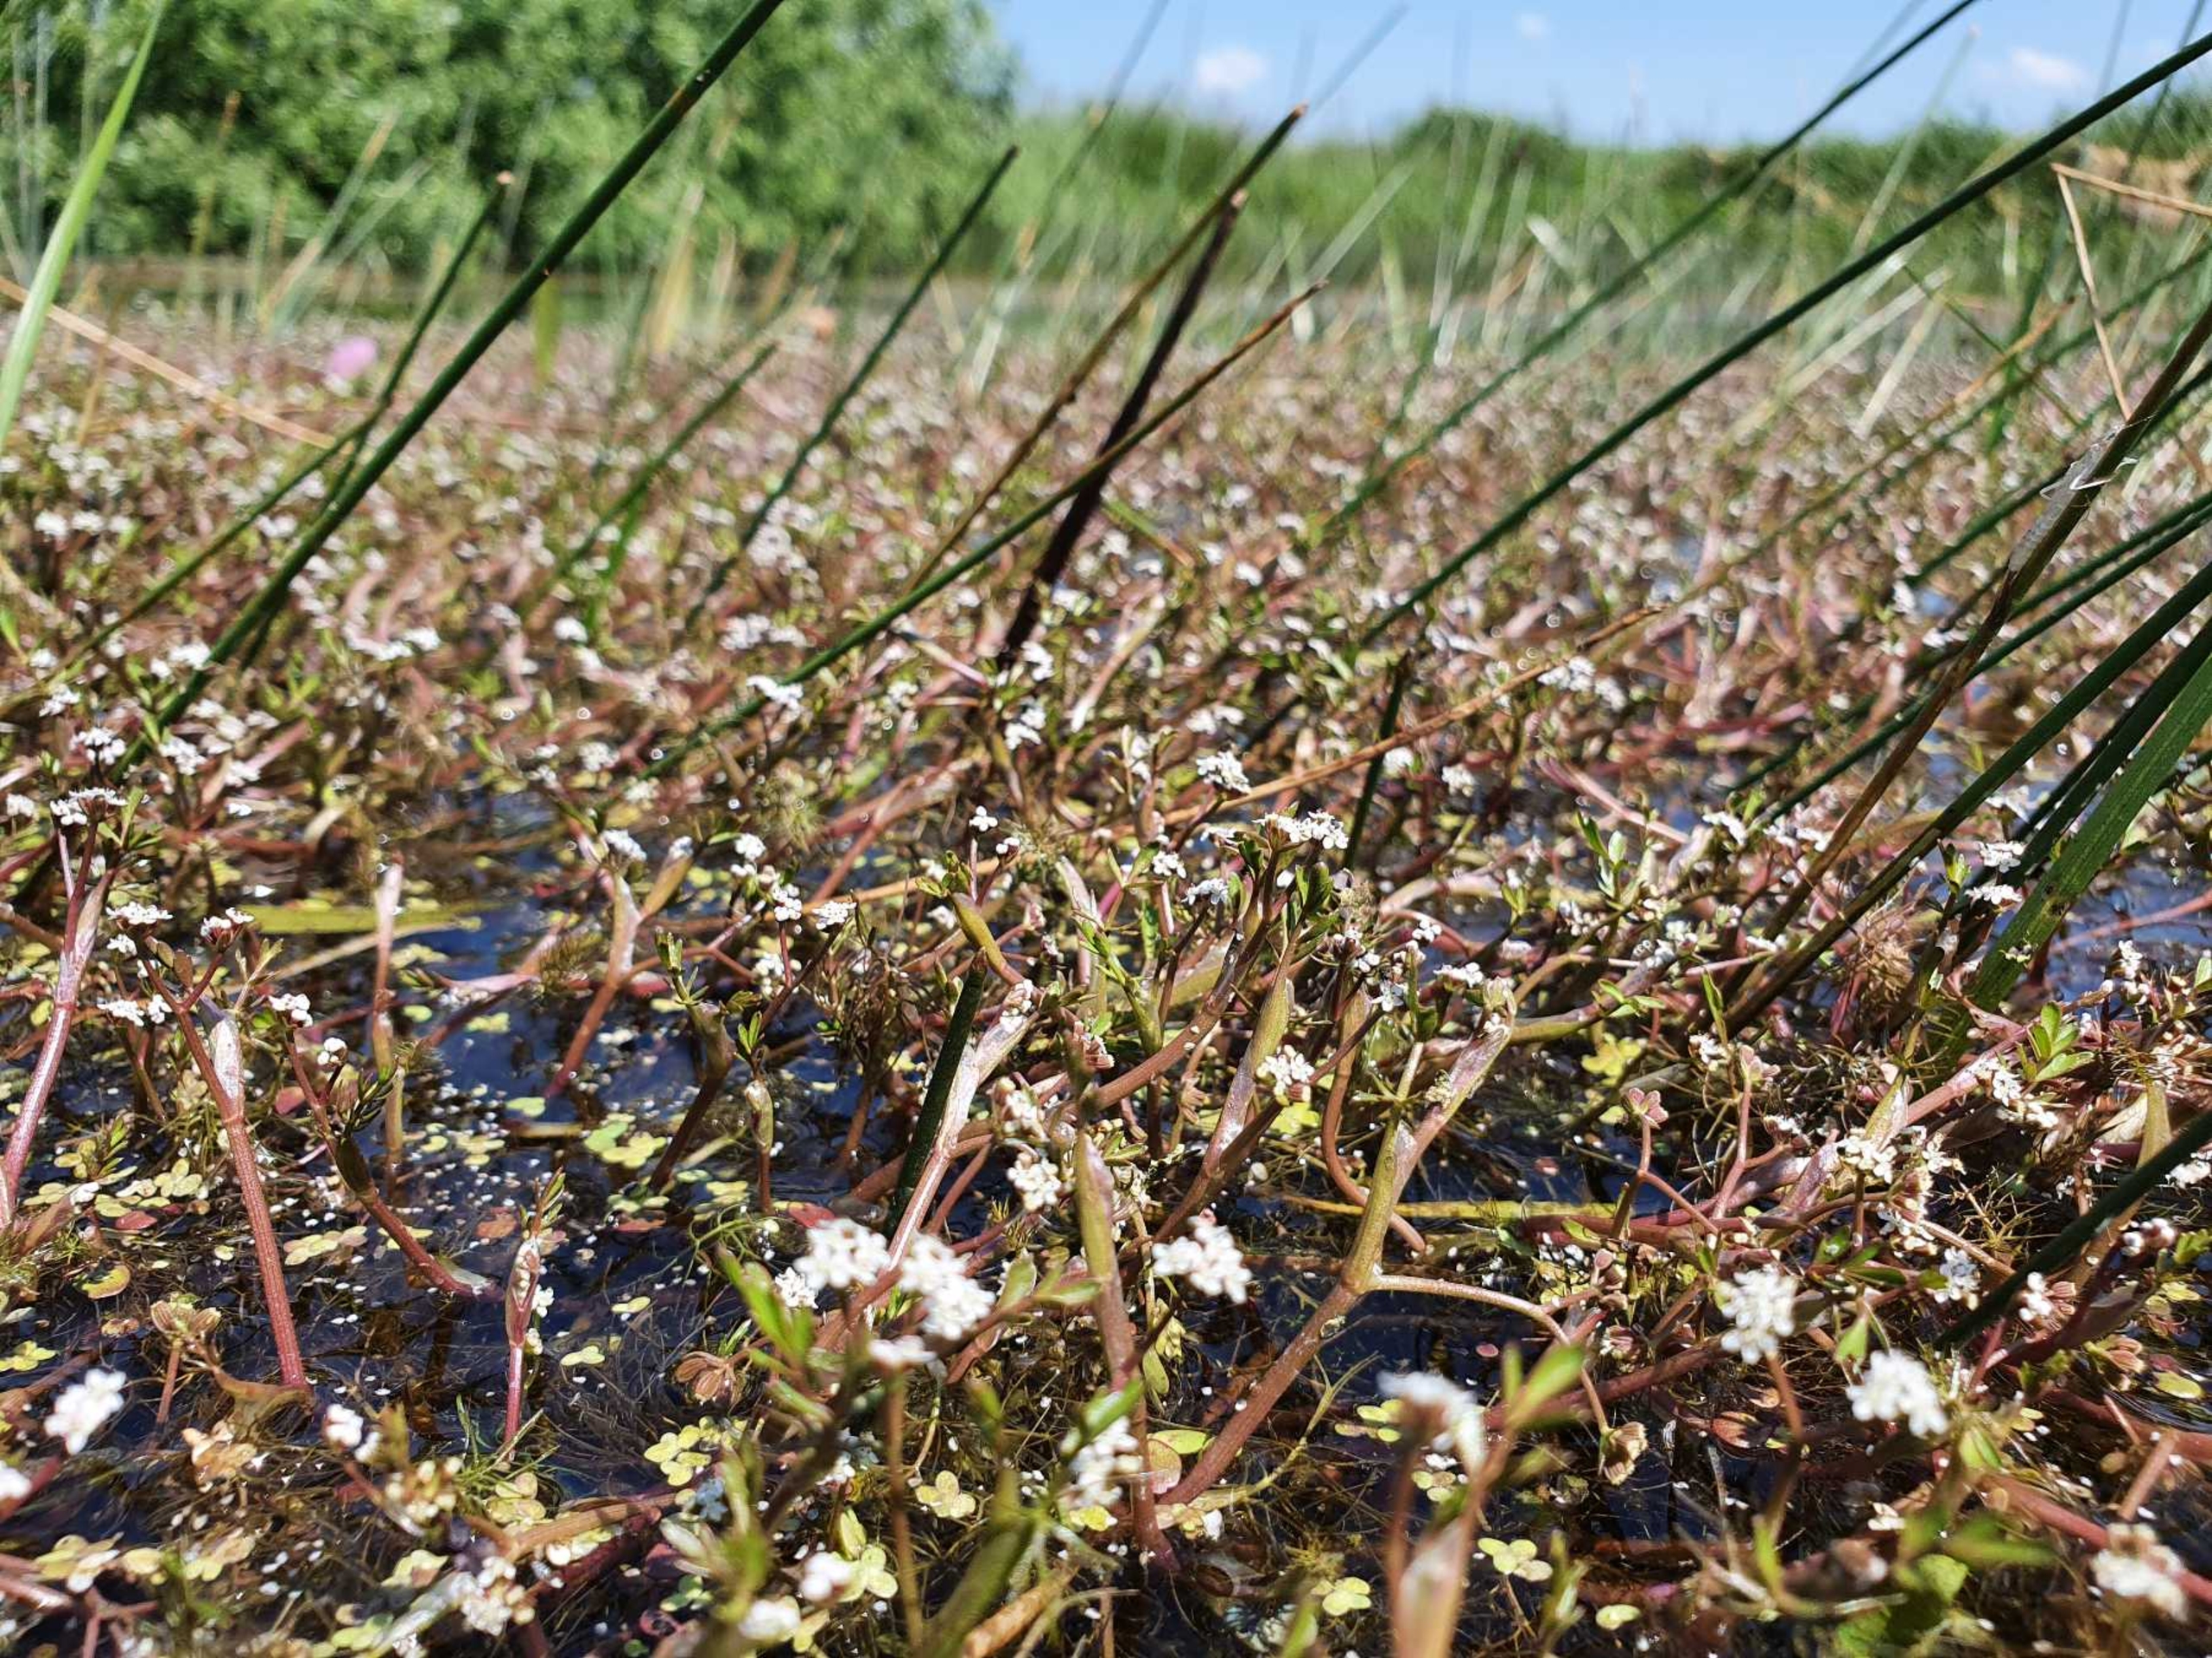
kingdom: Plantae
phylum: Tracheophyta
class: Magnoliopsida
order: Apiales
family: Apiaceae
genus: Helosciadium
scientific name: Helosciadium inundatum
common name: Svømmende sumpskærm
